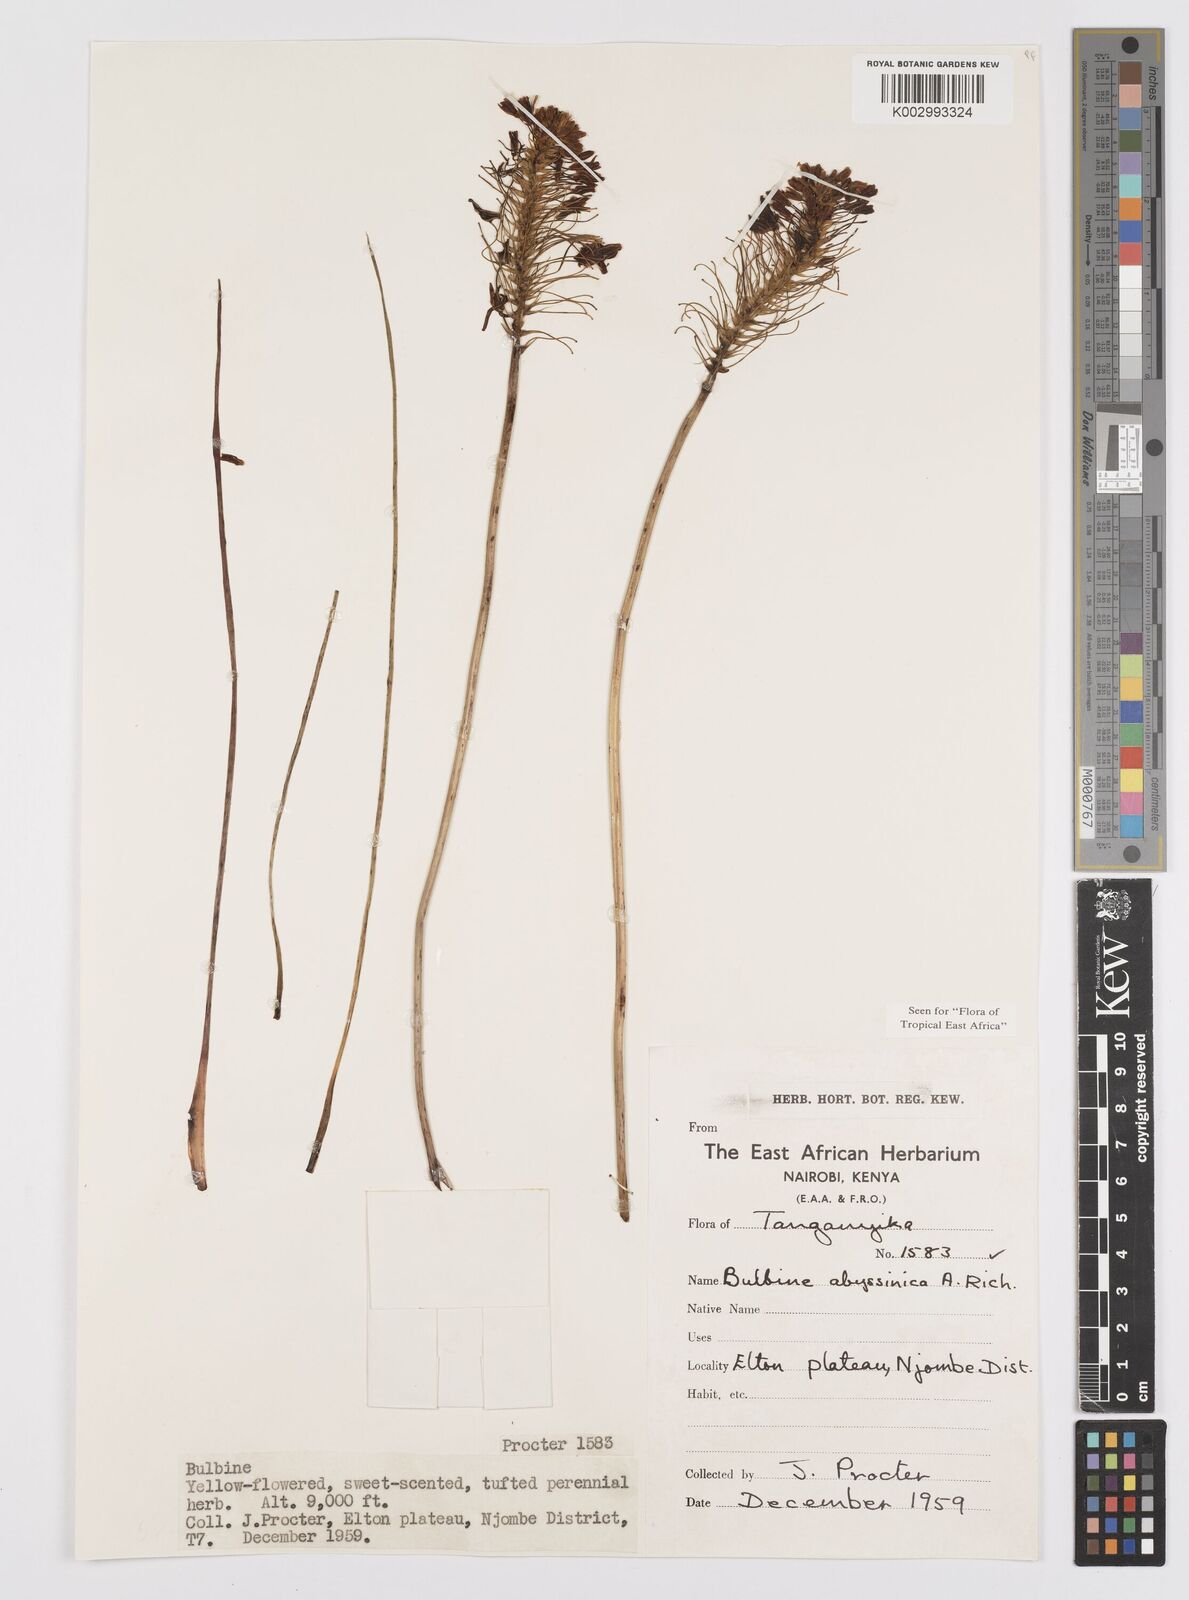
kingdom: Plantae
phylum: Tracheophyta
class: Liliopsida
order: Asparagales
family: Asphodelaceae
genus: Bulbine
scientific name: Bulbine abyssinica
